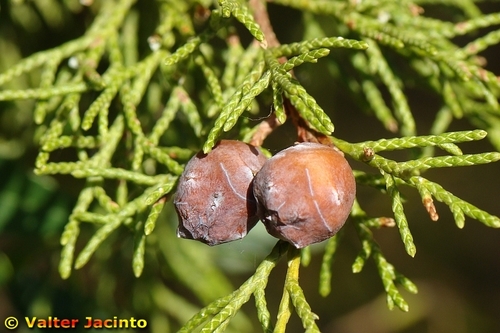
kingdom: Plantae
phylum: Tracheophyta
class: Pinopsida
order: Pinales
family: Cupressaceae
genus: Juniperus
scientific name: Juniperus phoenicea
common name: Phoenician juniper
